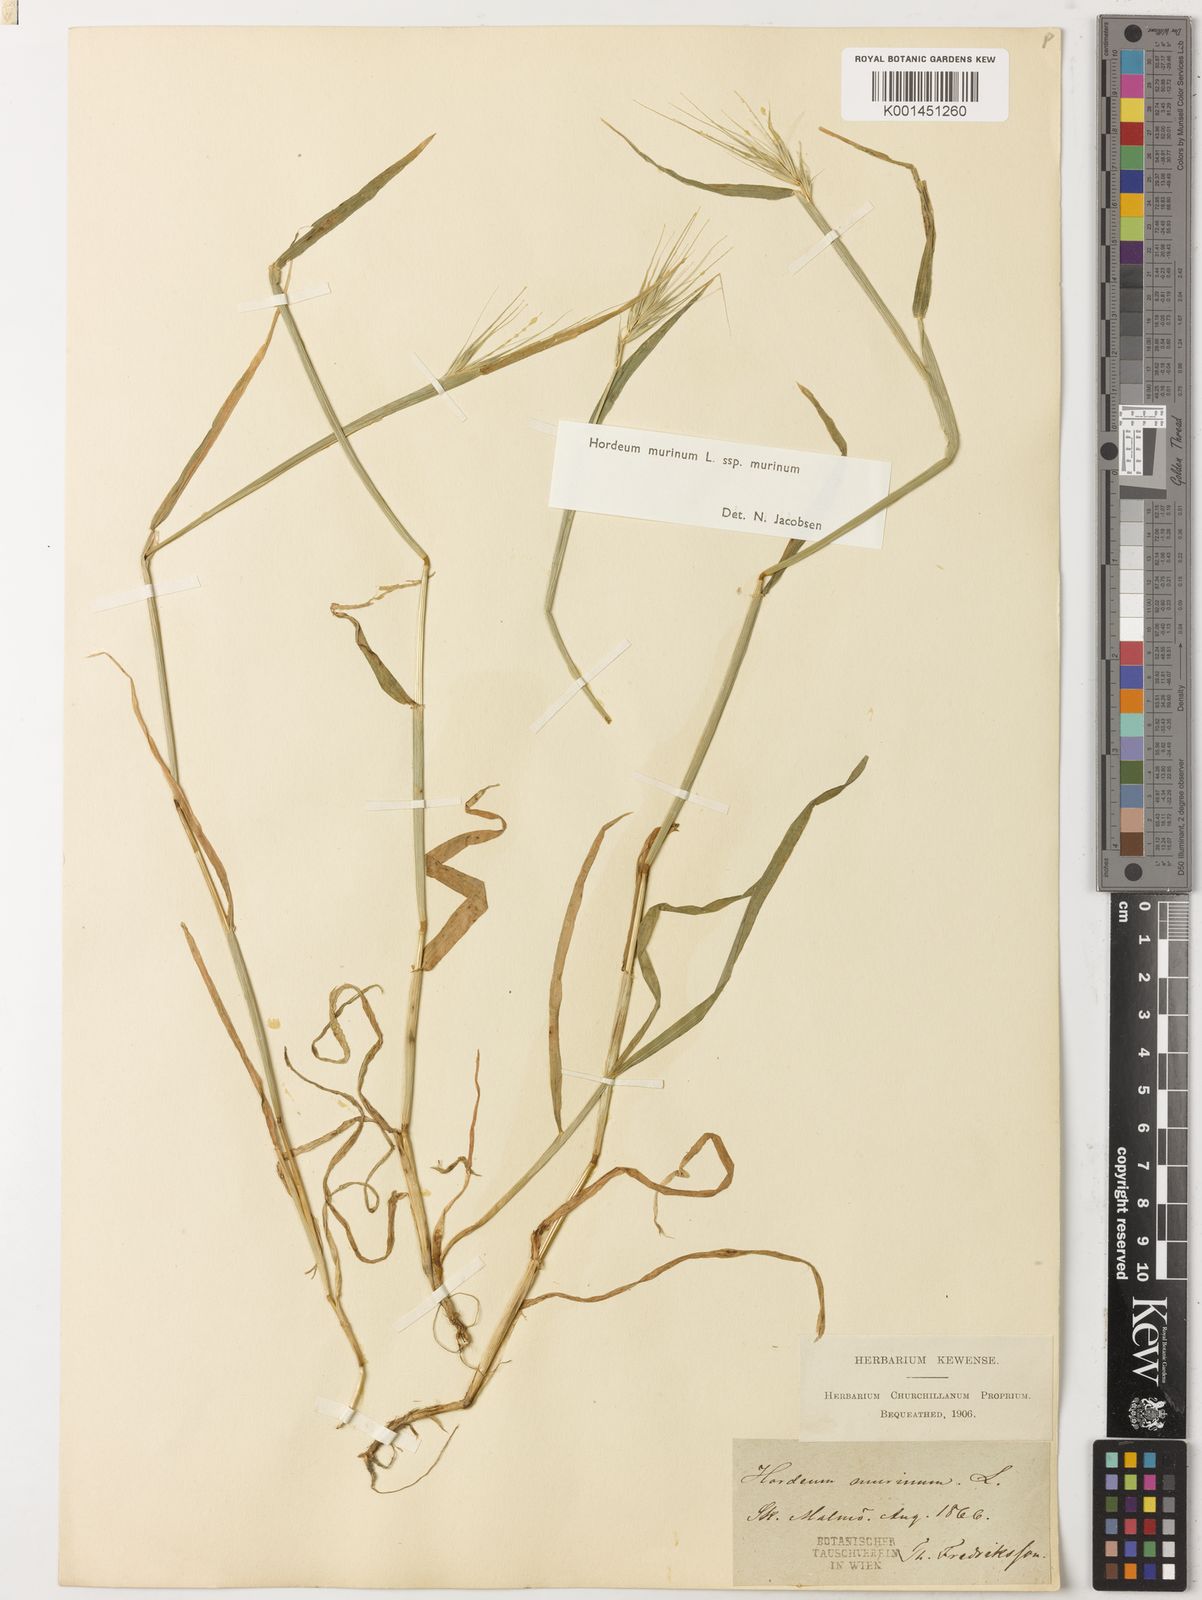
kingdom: Plantae
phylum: Tracheophyta
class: Liliopsida
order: Poales
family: Poaceae
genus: Hordeum
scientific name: Hordeum murinum
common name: Wall barley
